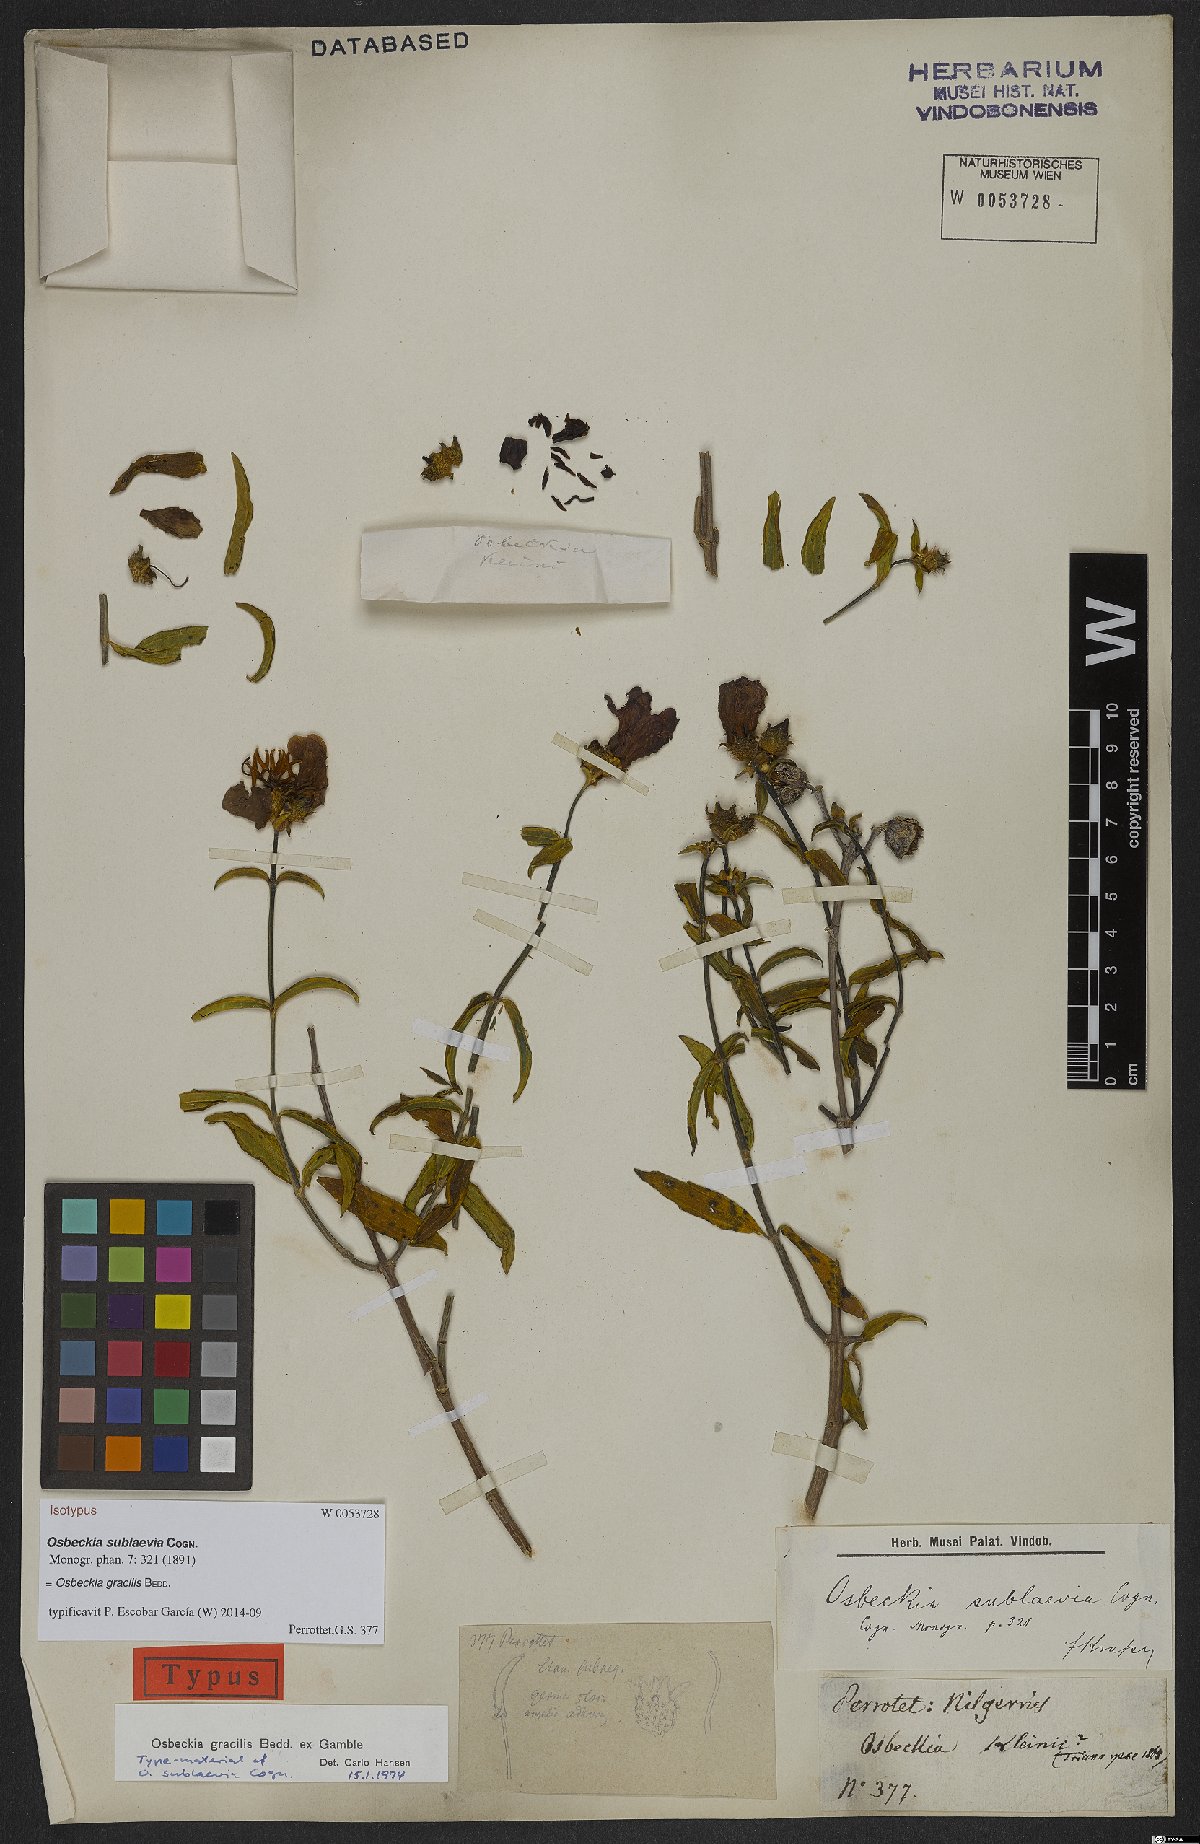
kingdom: Plantae
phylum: Tracheophyta
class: Magnoliopsida
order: Myrtales
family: Melastomataceae
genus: Osbeckia
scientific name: Osbeckia gracilis
